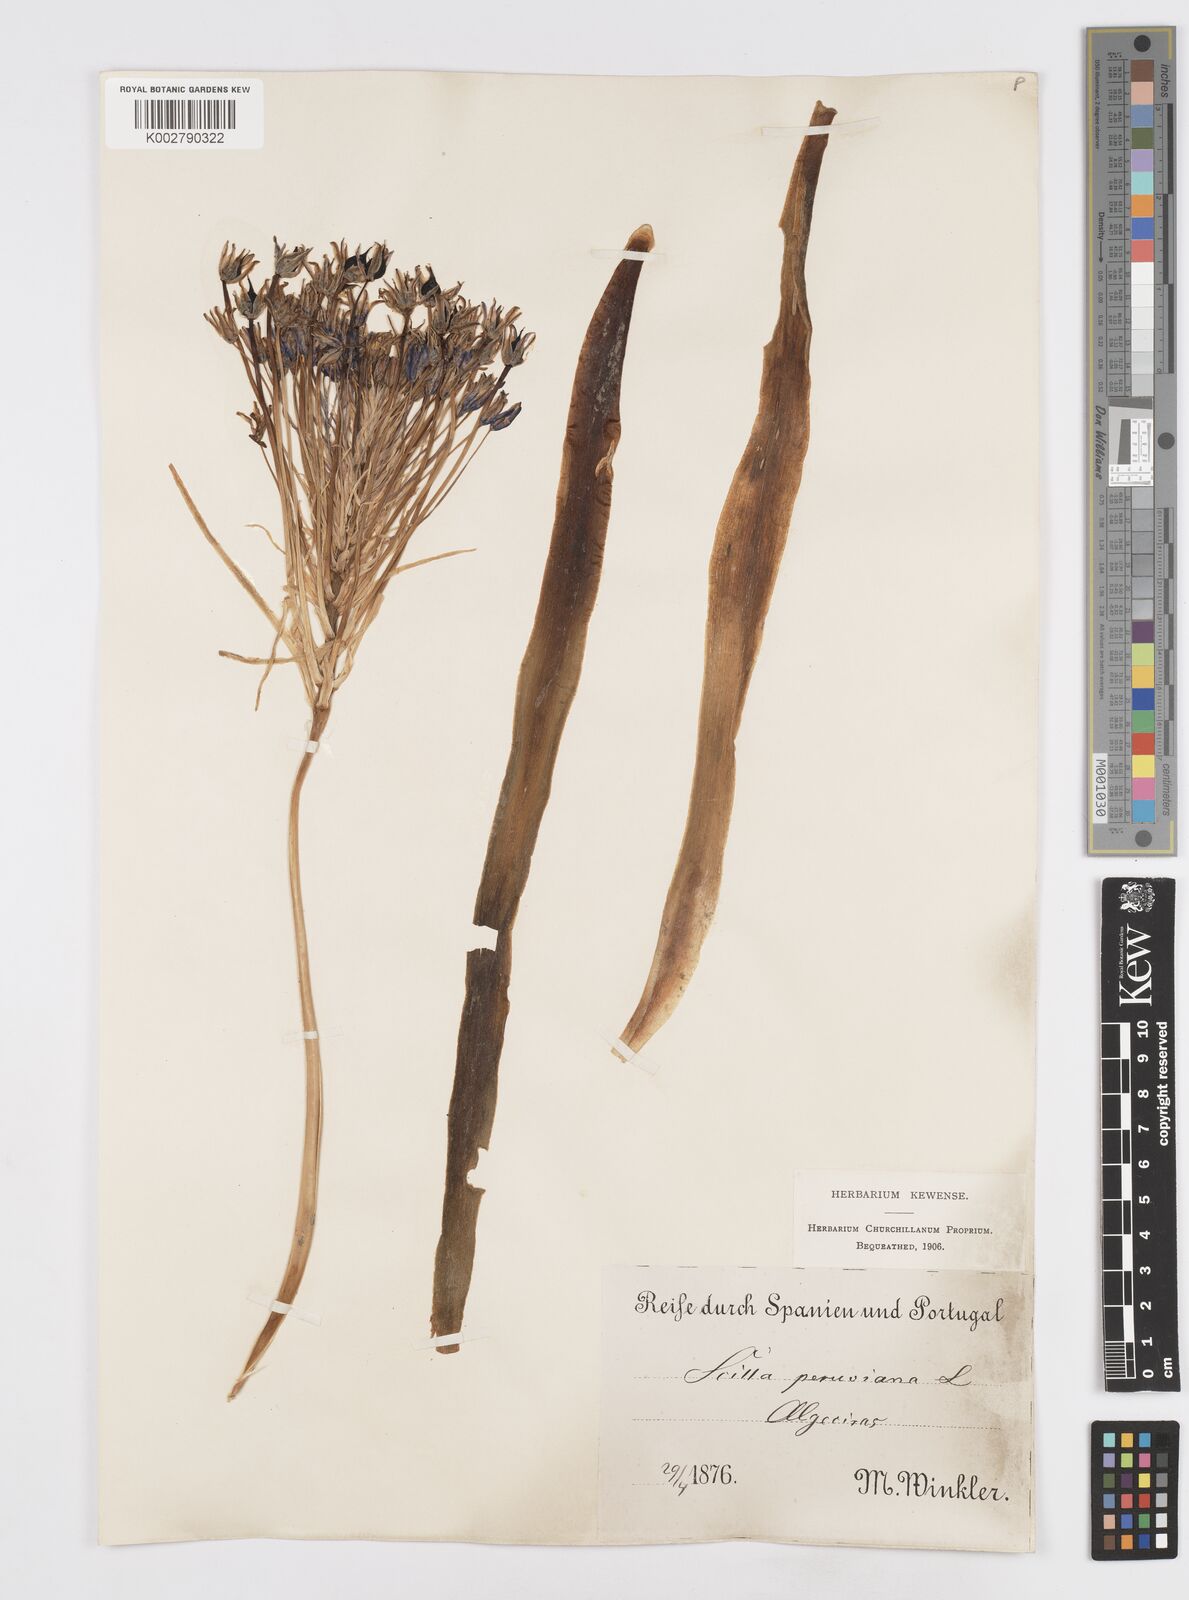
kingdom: Plantae
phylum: Tracheophyta
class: Liliopsida
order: Asparagales
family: Asparagaceae
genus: Scilla
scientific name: Scilla peruviana
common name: Portuguese squill
